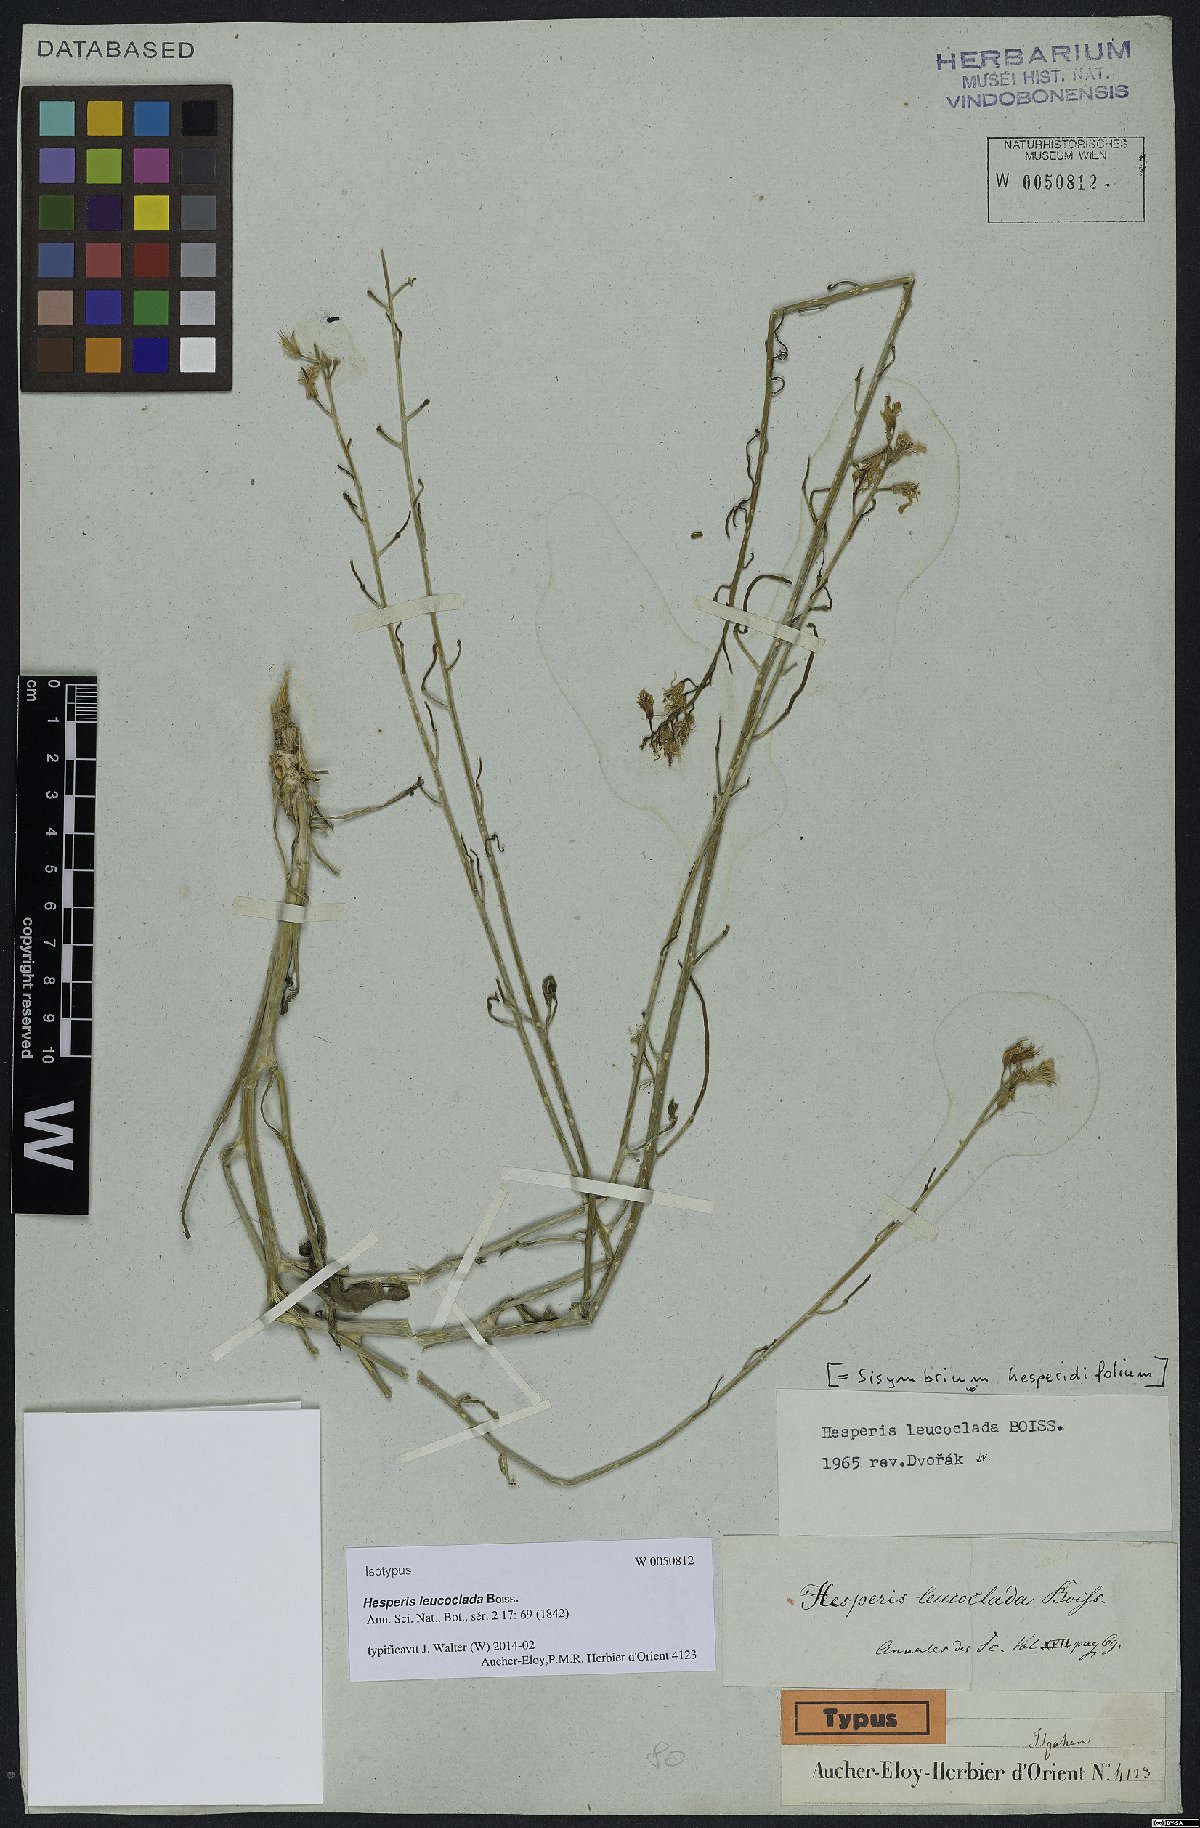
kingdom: Plantae
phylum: Tracheophyta
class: Magnoliopsida
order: Brassicales
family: Brassicaceae
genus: Sisymbrium
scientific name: Sisymbrium leucocladum
